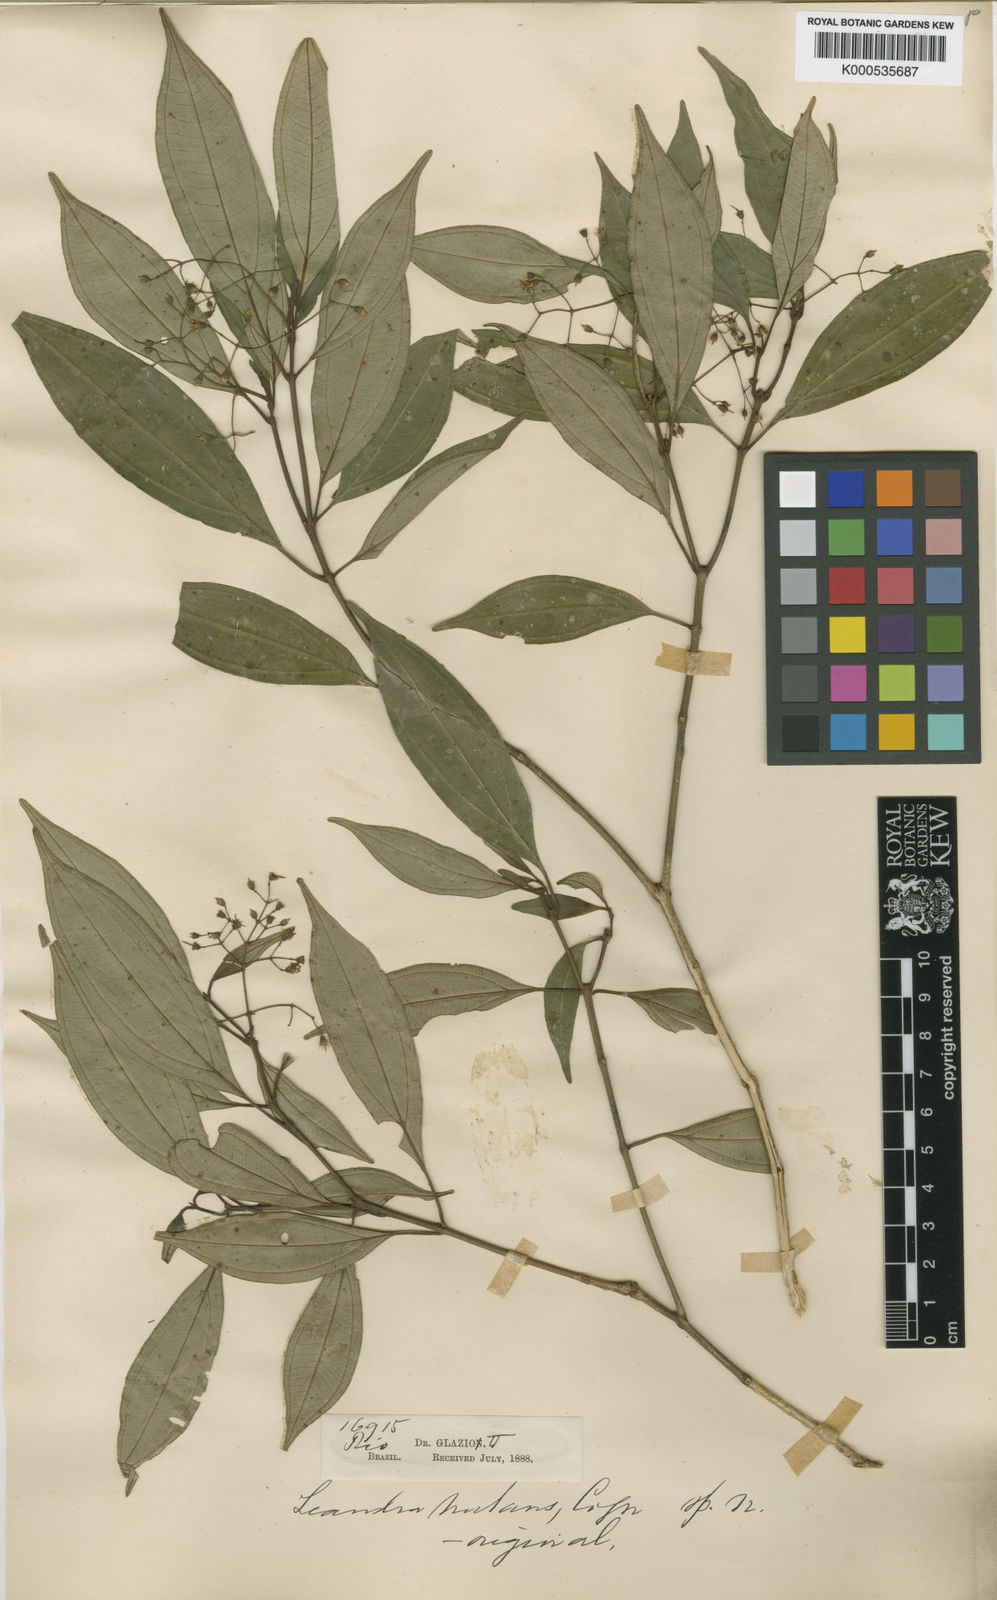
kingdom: Plantae
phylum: Tracheophyta
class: Magnoliopsida
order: Myrtales
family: Melastomataceae
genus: Miconia
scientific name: Miconia acutiflora
